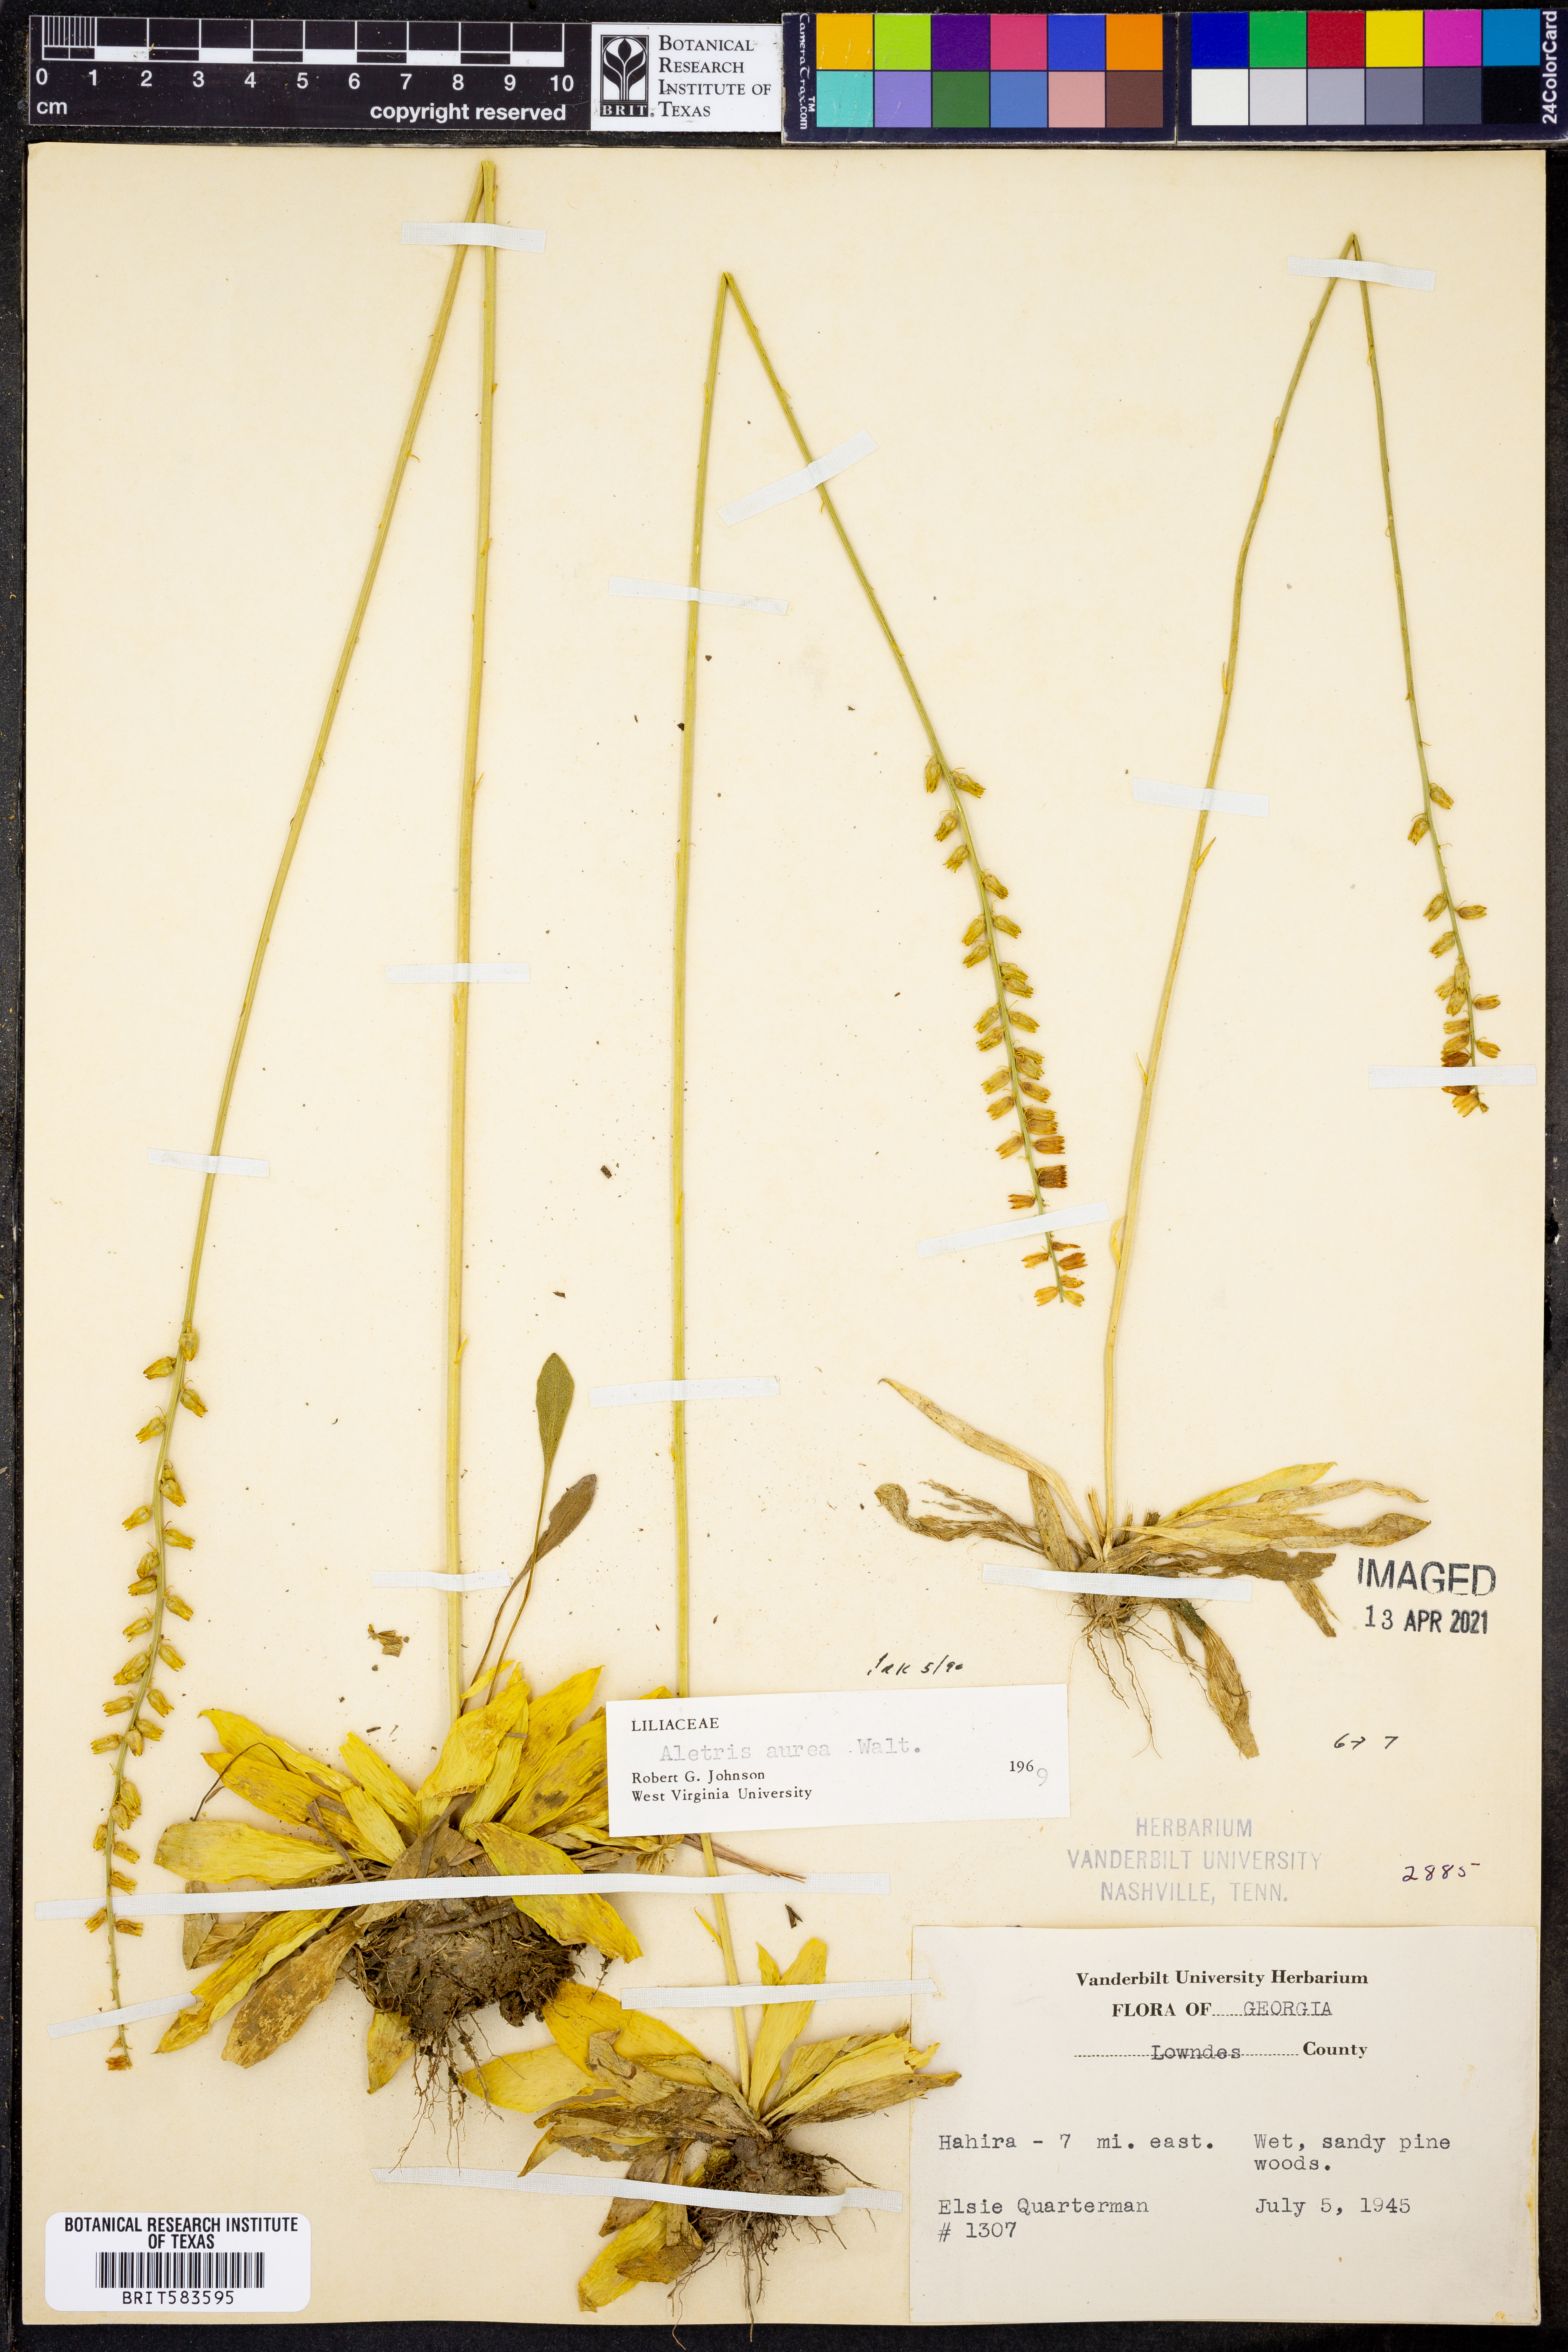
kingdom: Plantae
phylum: Tracheophyta
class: Liliopsida
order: Dioscoreales
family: Nartheciaceae
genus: Aletris
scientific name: Aletris aurea
